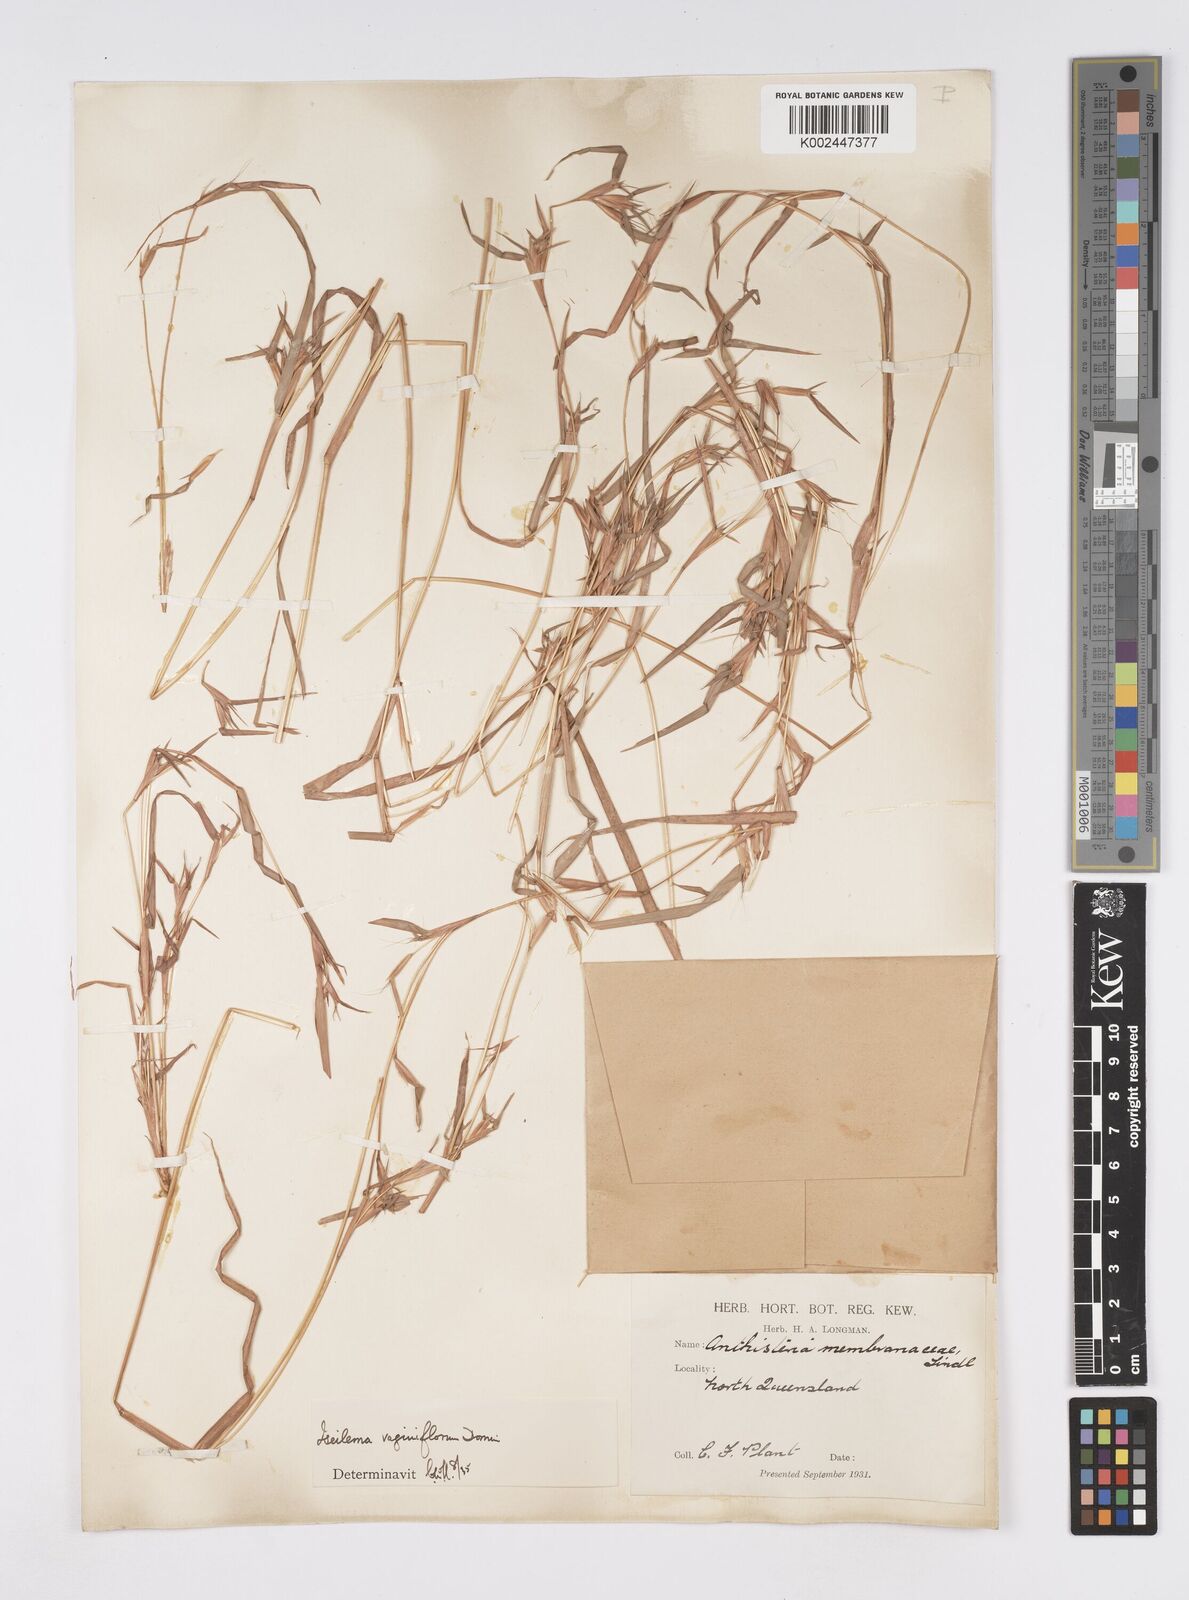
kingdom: Plantae
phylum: Tracheophyta
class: Liliopsida
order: Poales
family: Poaceae
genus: Iseilema
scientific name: Iseilema vaginiflorum
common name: Red flinders grass
